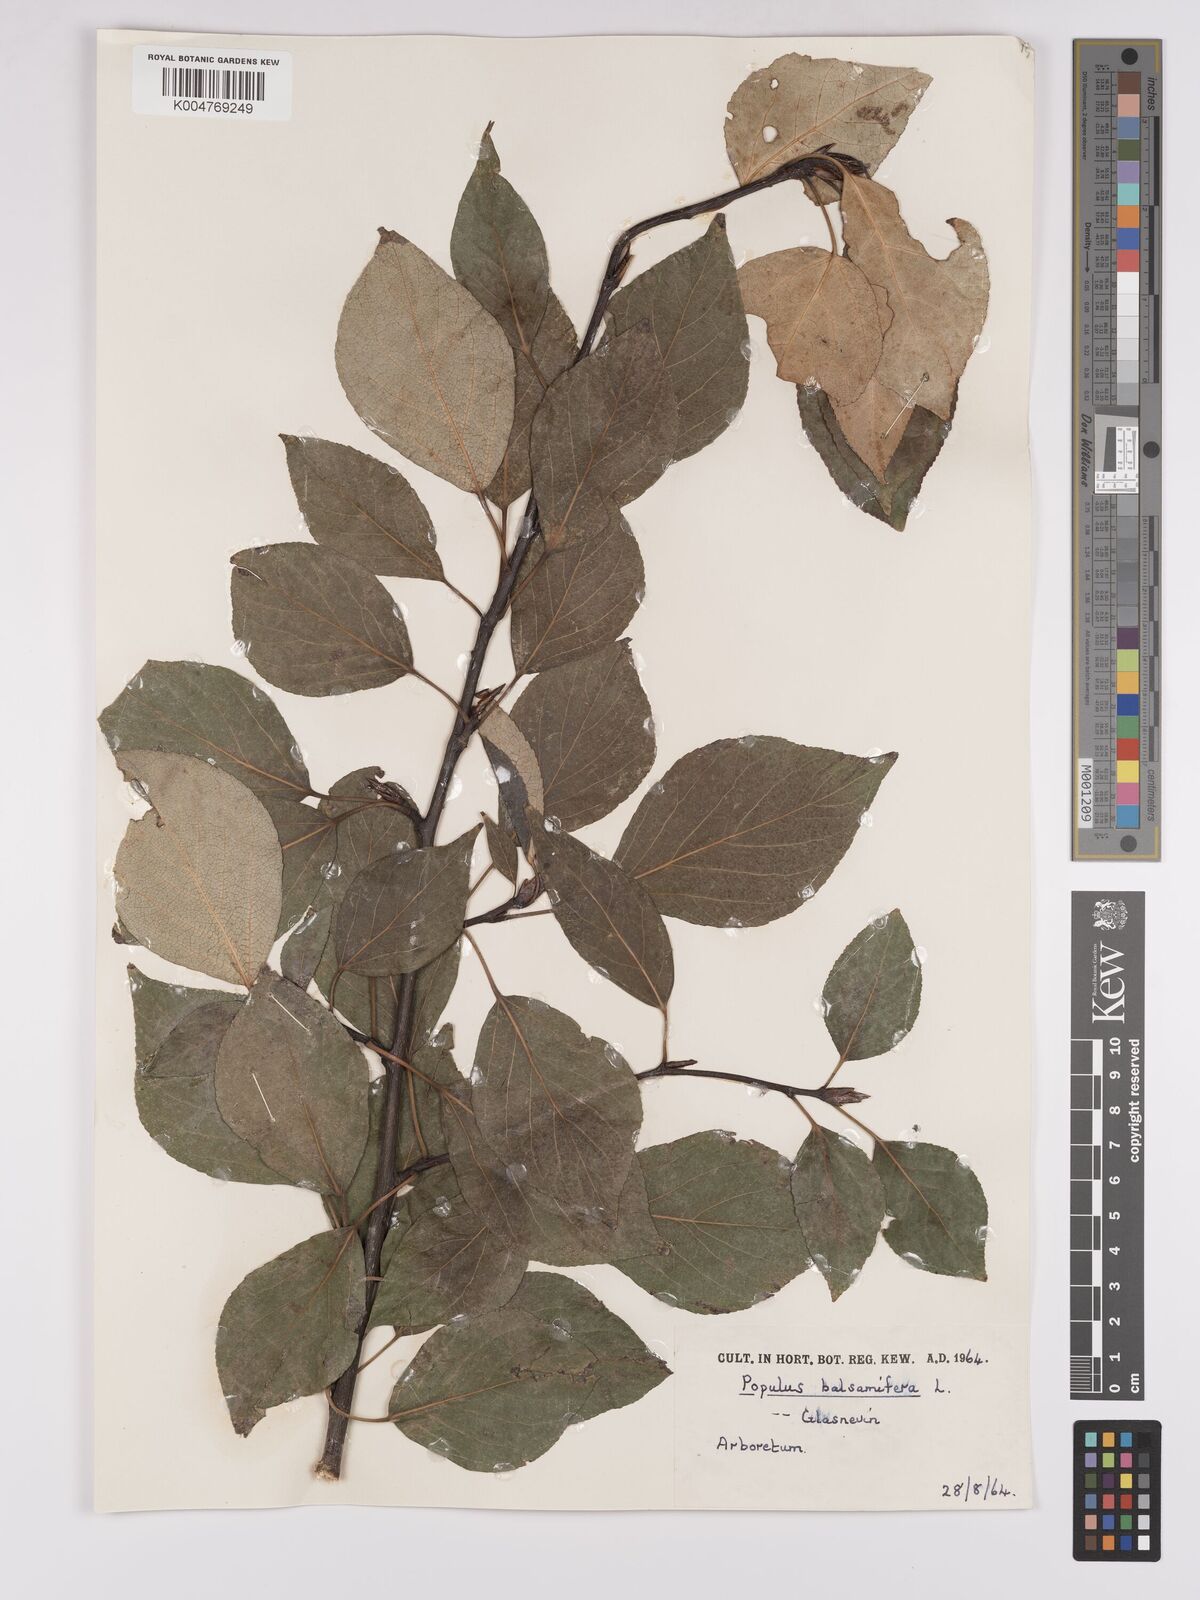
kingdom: Plantae
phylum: Tracheophyta
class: Magnoliopsida
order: Malpighiales
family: Salicaceae
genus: Populus
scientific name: Populus balsamifera
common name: Balsam poplar
